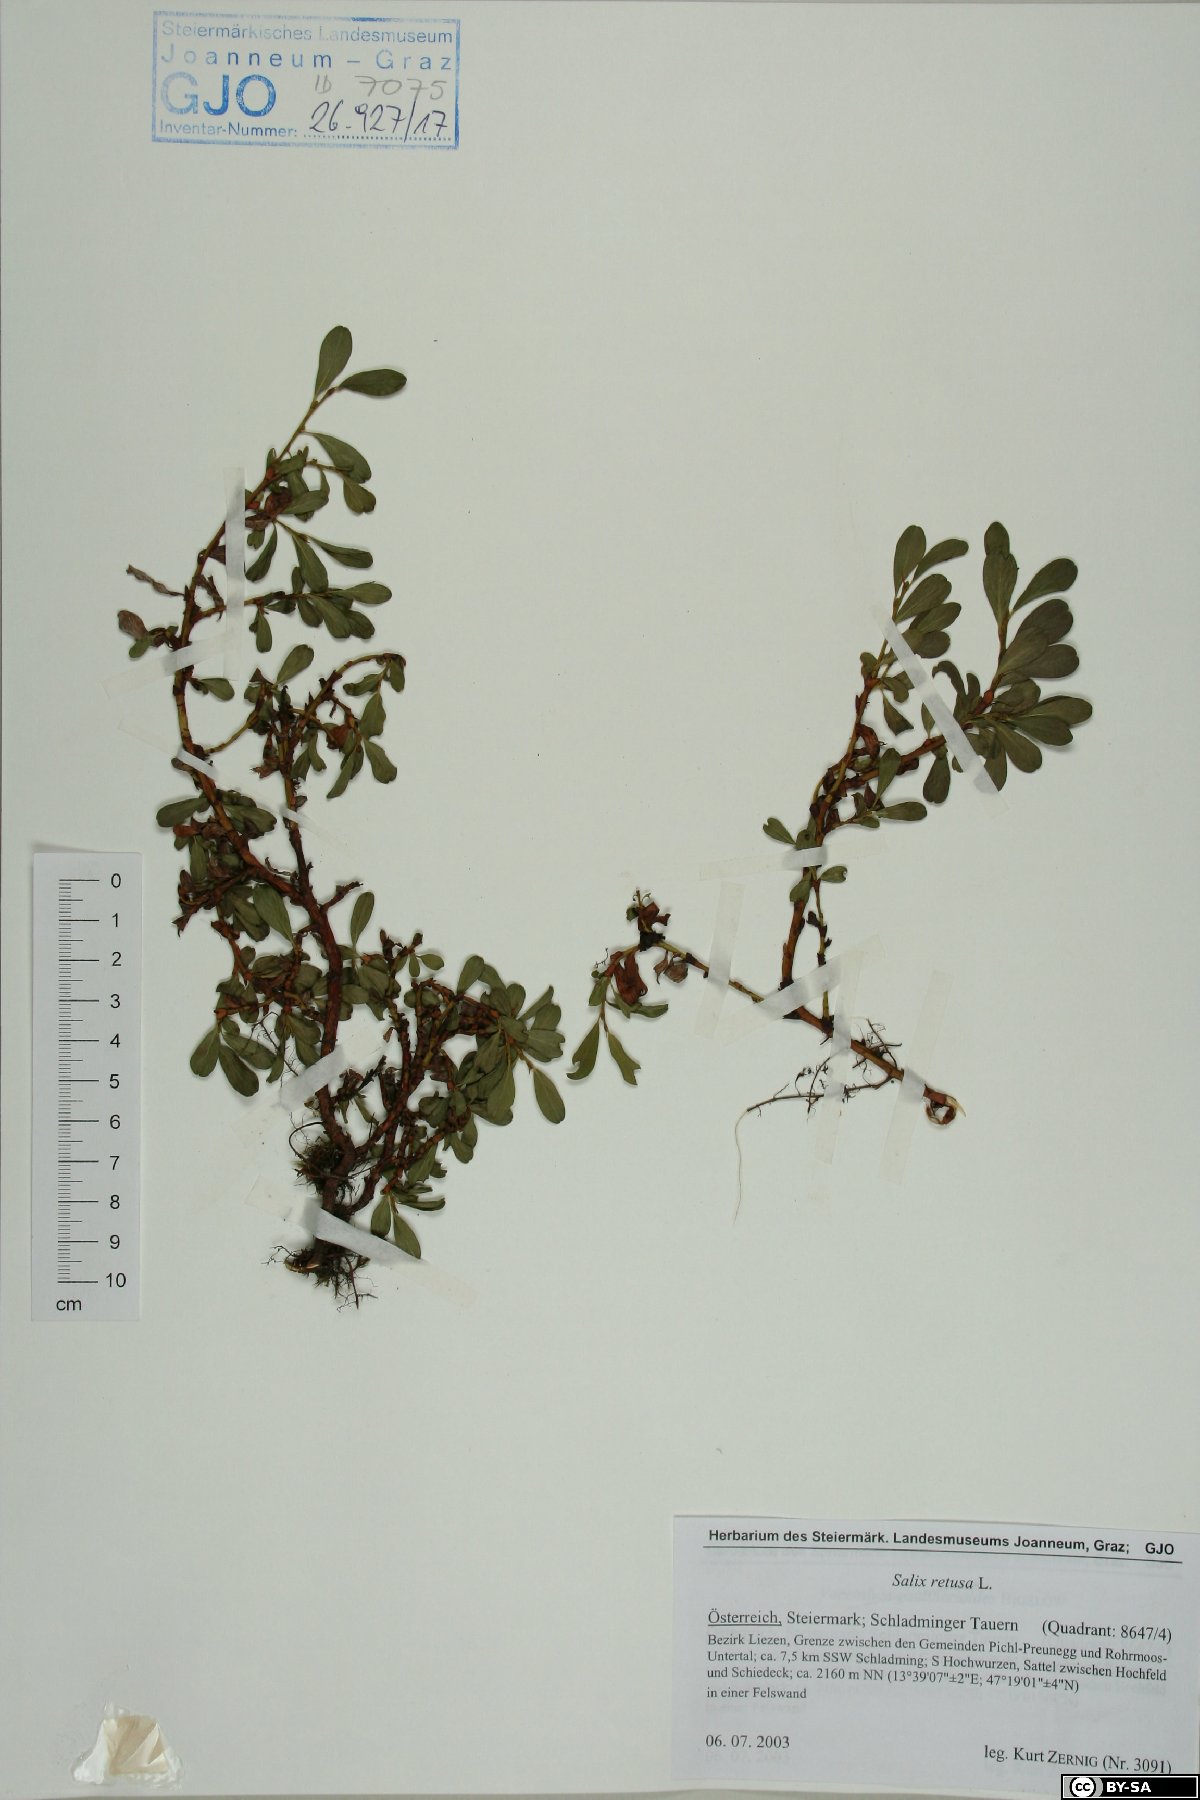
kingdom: Plantae
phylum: Tracheophyta
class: Magnoliopsida
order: Malpighiales
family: Salicaceae
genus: Salix
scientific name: Salix retusa
